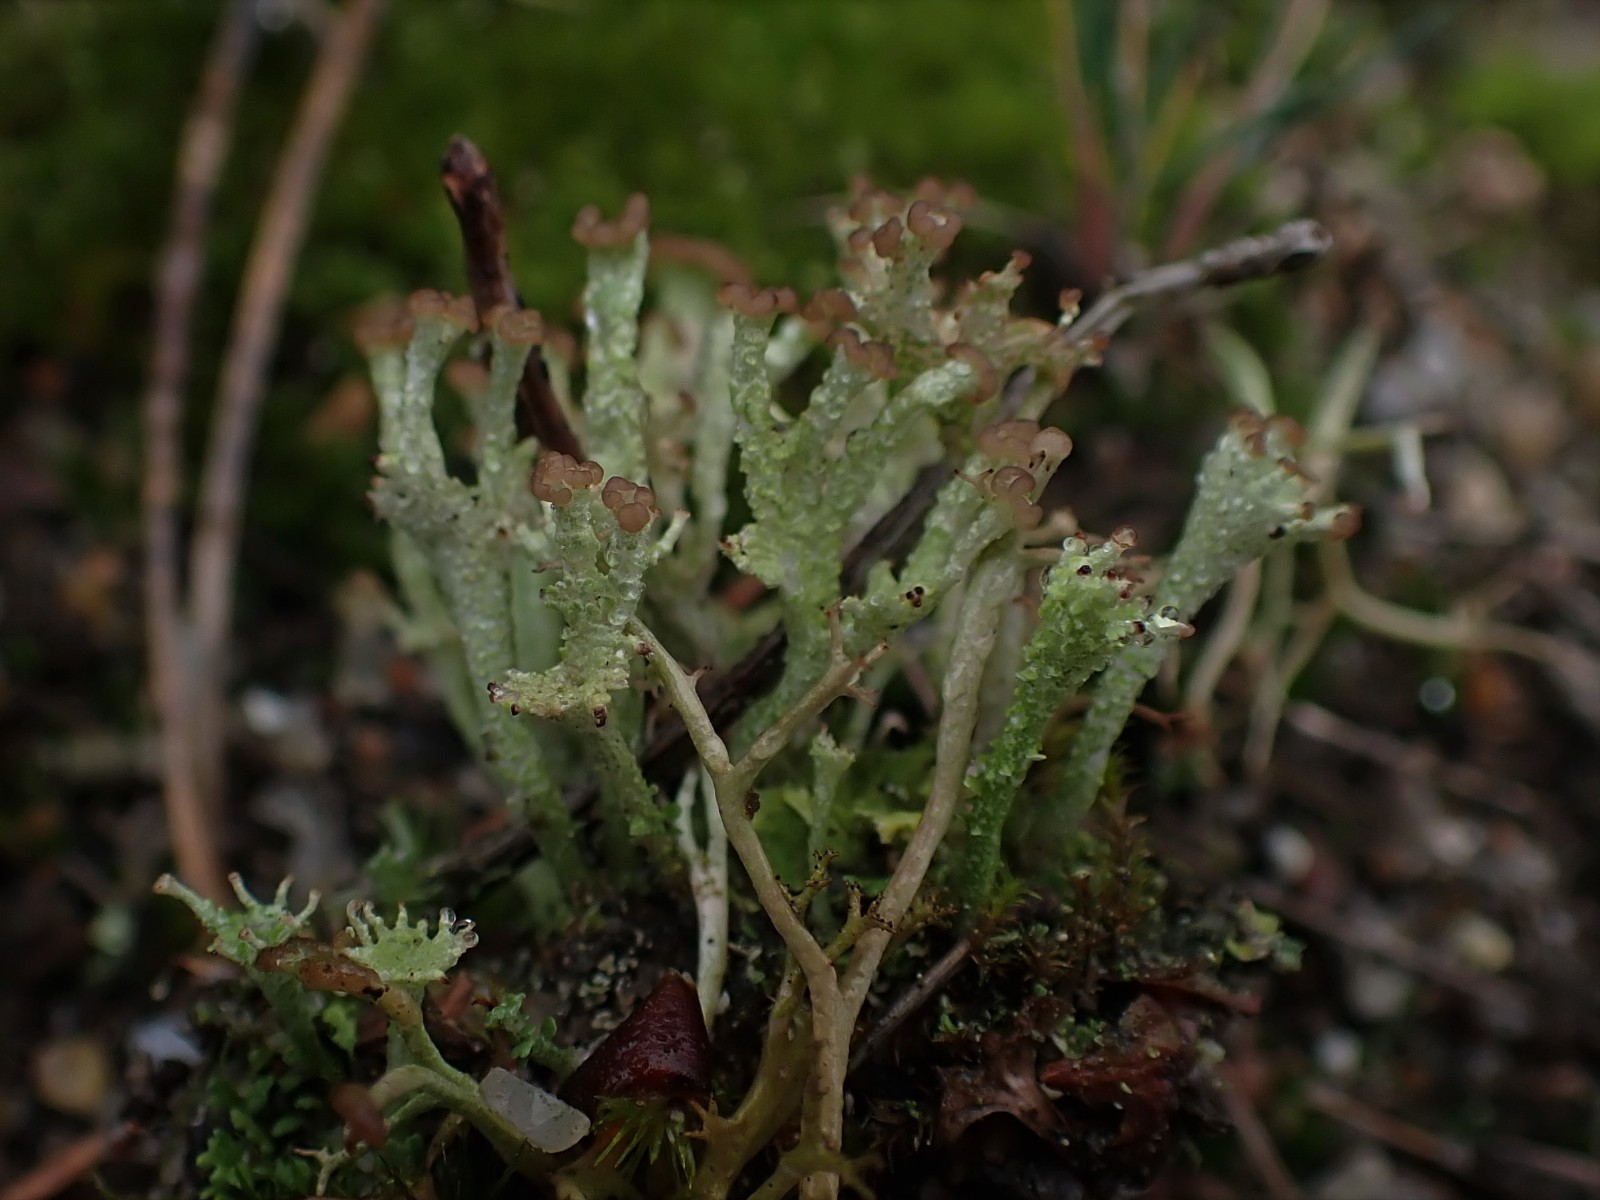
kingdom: Fungi
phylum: Ascomycota
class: Lecanoromycetes
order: Lecanorales
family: Cladoniaceae
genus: Cladonia
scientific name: Cladonia ramulosa
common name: kliddet bægerlav
